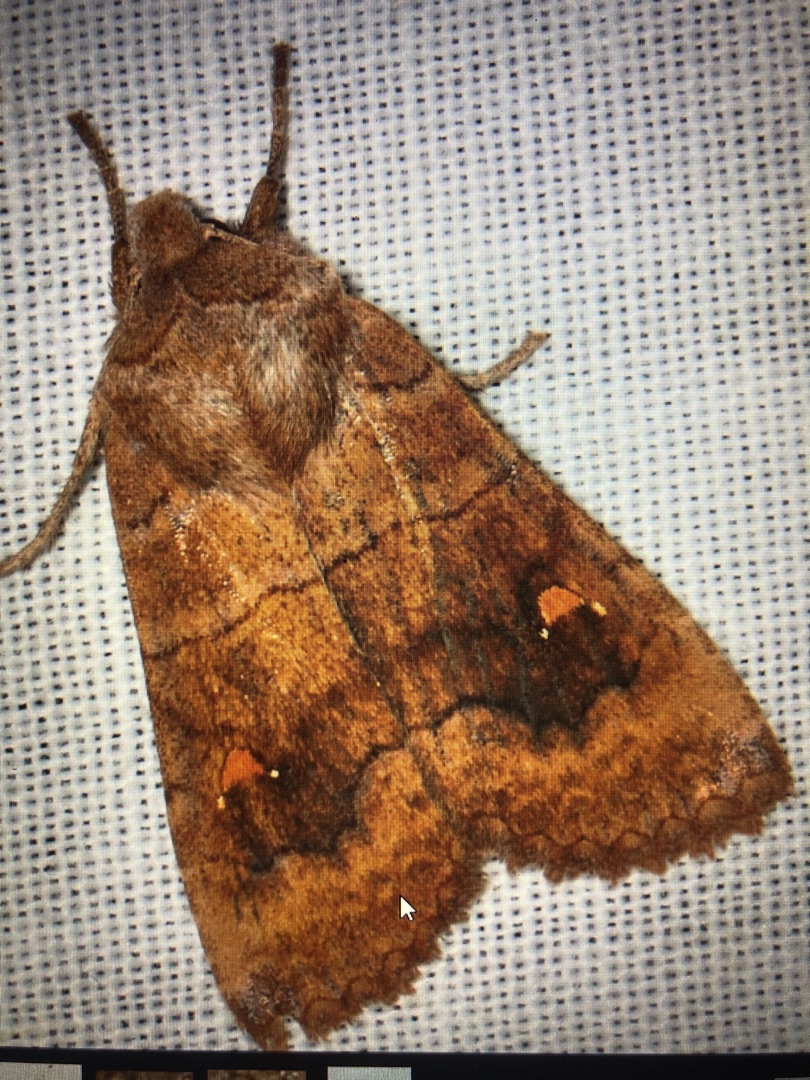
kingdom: Animalia
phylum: Arthropoda
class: Insecta
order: Lepidoptera
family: Noctuidae
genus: Eupsilia
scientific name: Eupsilia transversa
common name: Satellitugle
